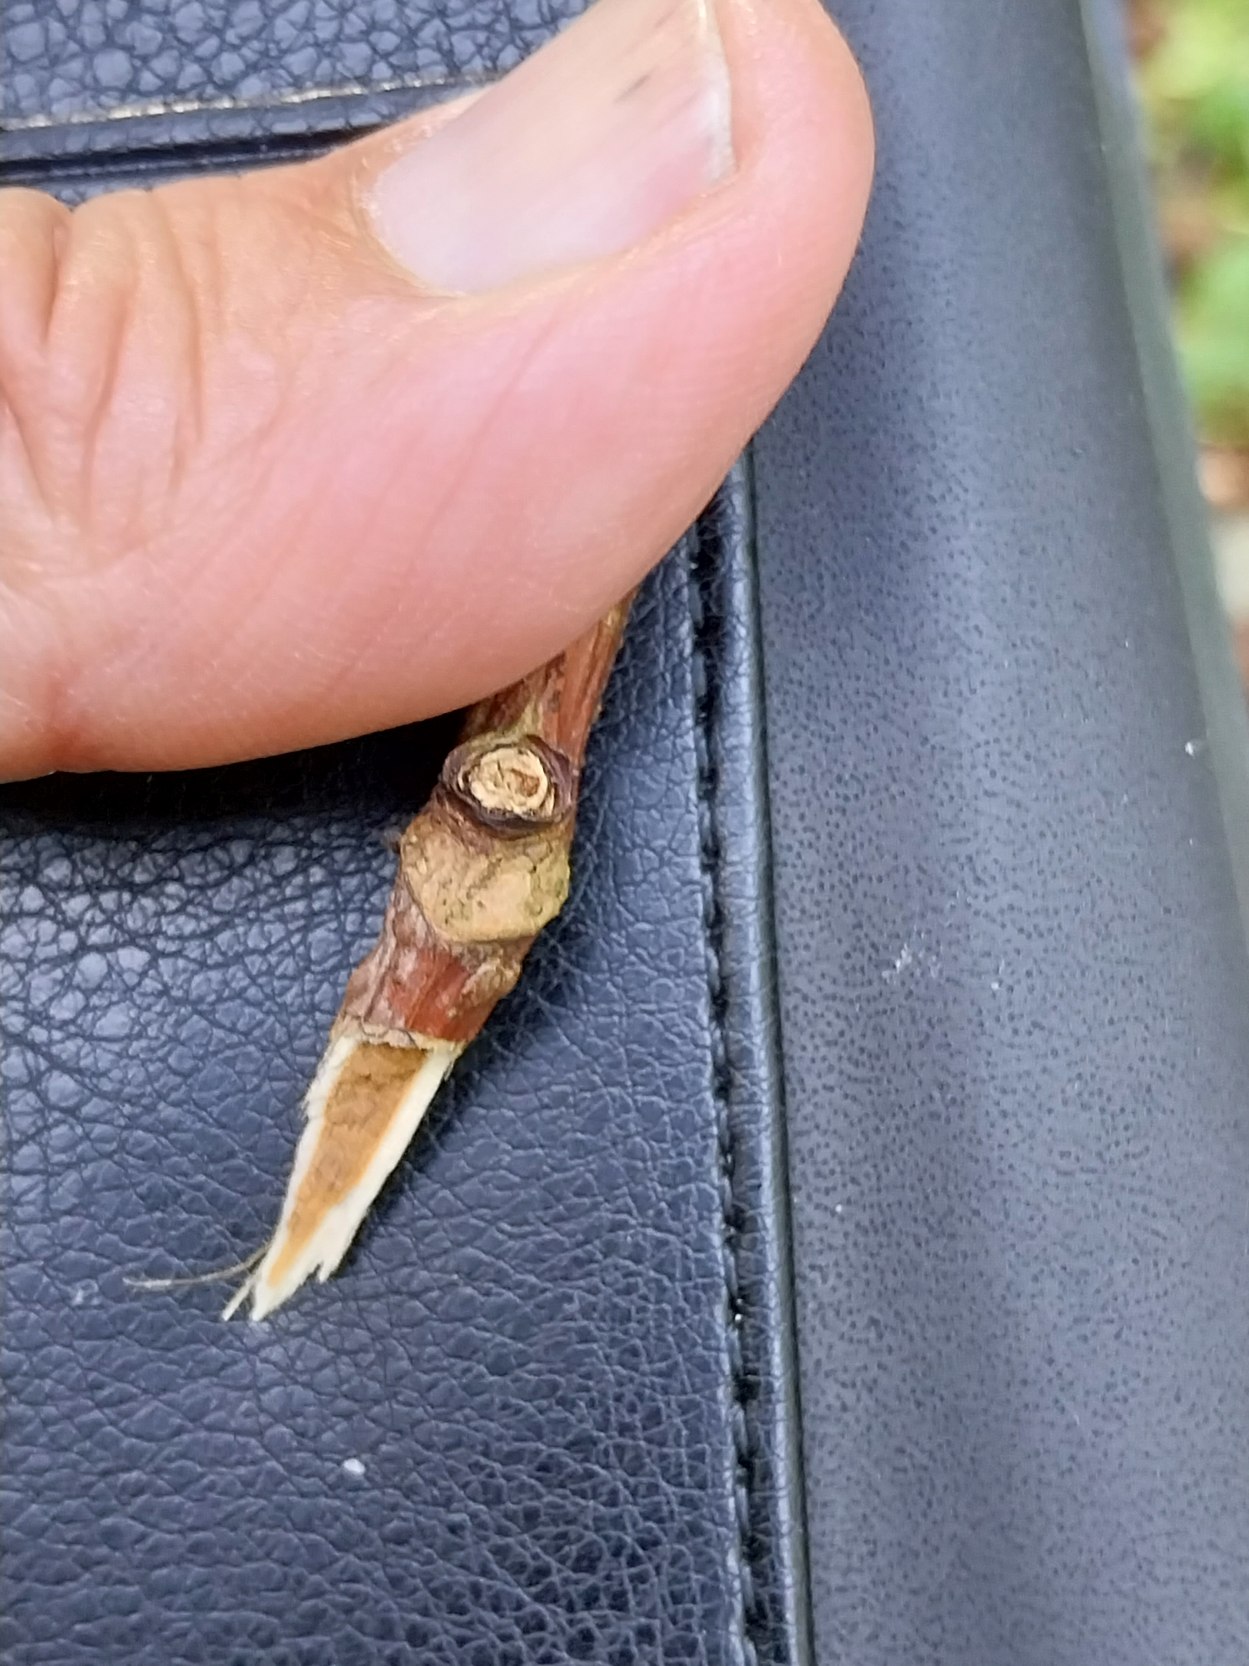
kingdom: Plantae
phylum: Tracheophyta
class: Magnoliopsida
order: Dipsacales
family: Viburnaceae
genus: Sambucus
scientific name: Sambucus racemosa
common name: Drue-hyld
